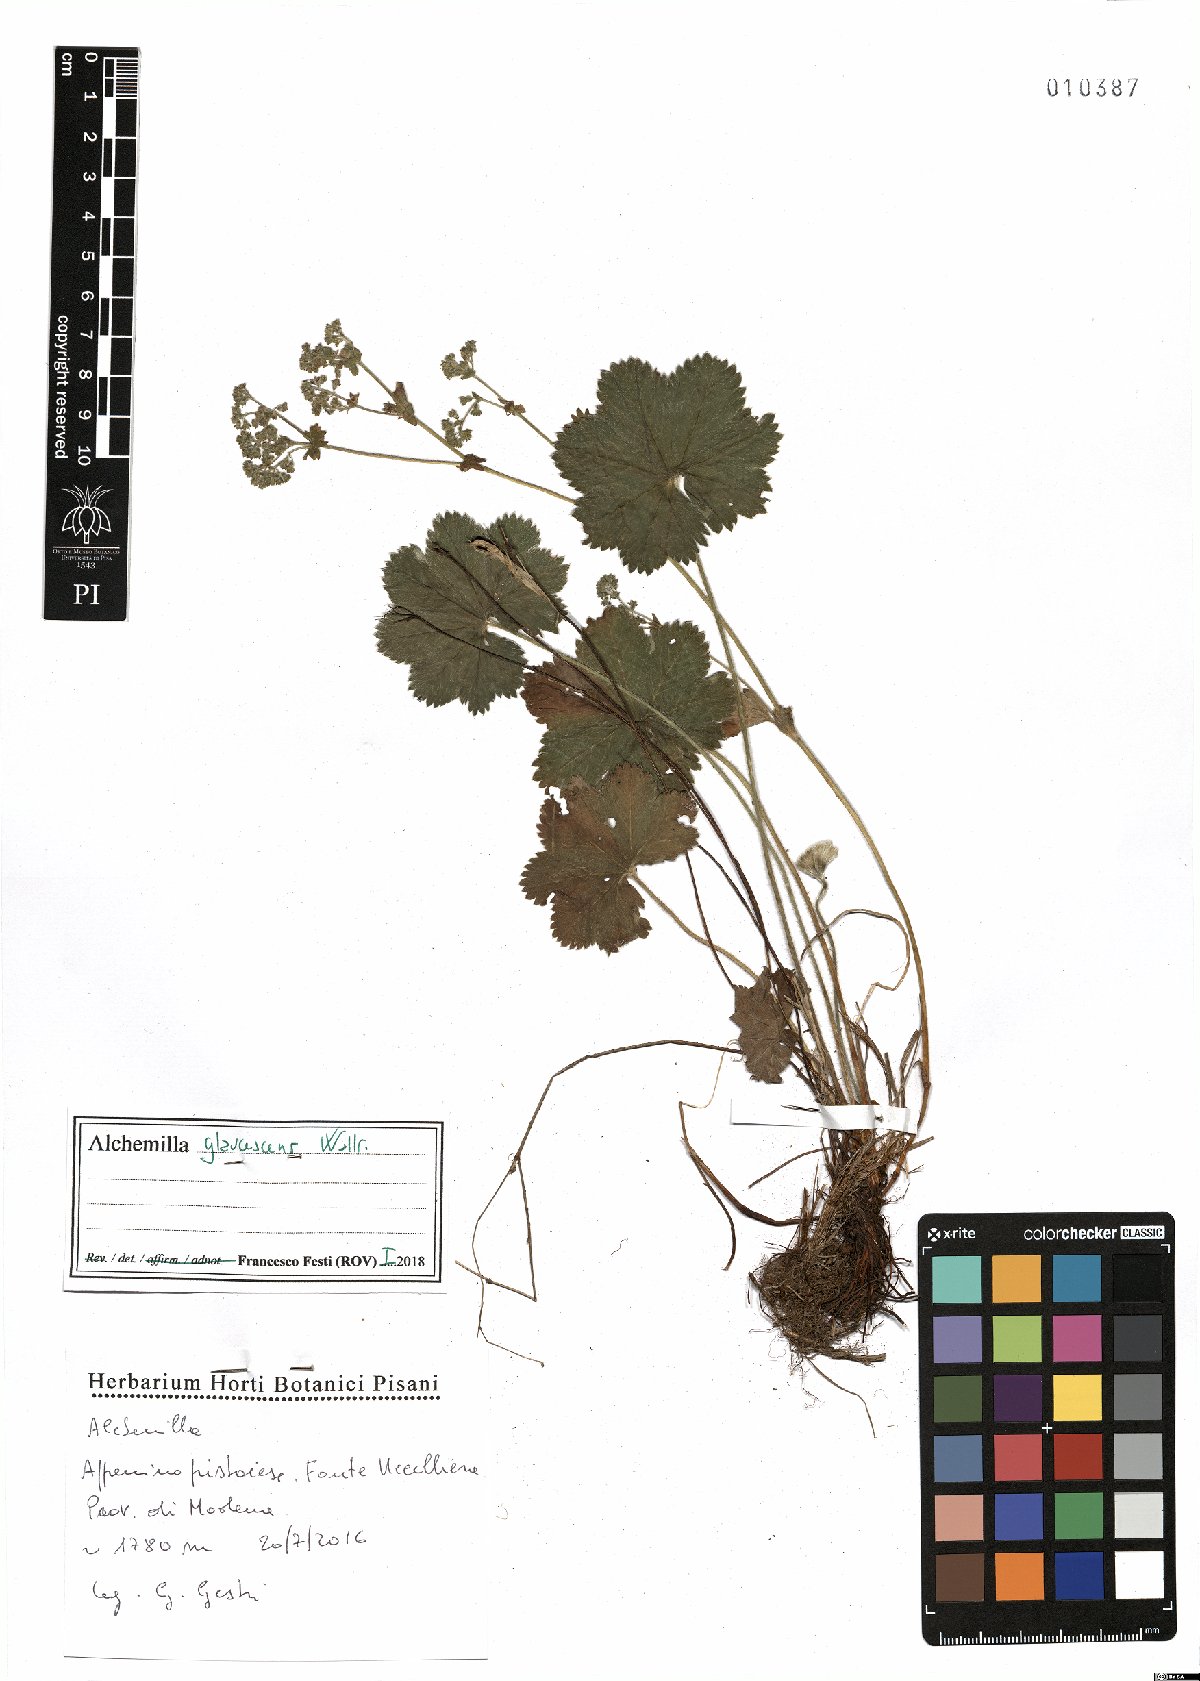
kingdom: Plantae
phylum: Tracheophyta
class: Magnoliopsida
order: Rosales
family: Rosaceae
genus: Alchemilla
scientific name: Alchemilla glaucescens
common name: Silky lady's mantle
